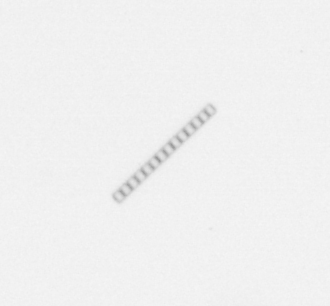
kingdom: Chromista
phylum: Ochrophyta
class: Bacillariophyceae
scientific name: Bacillariophyceae
